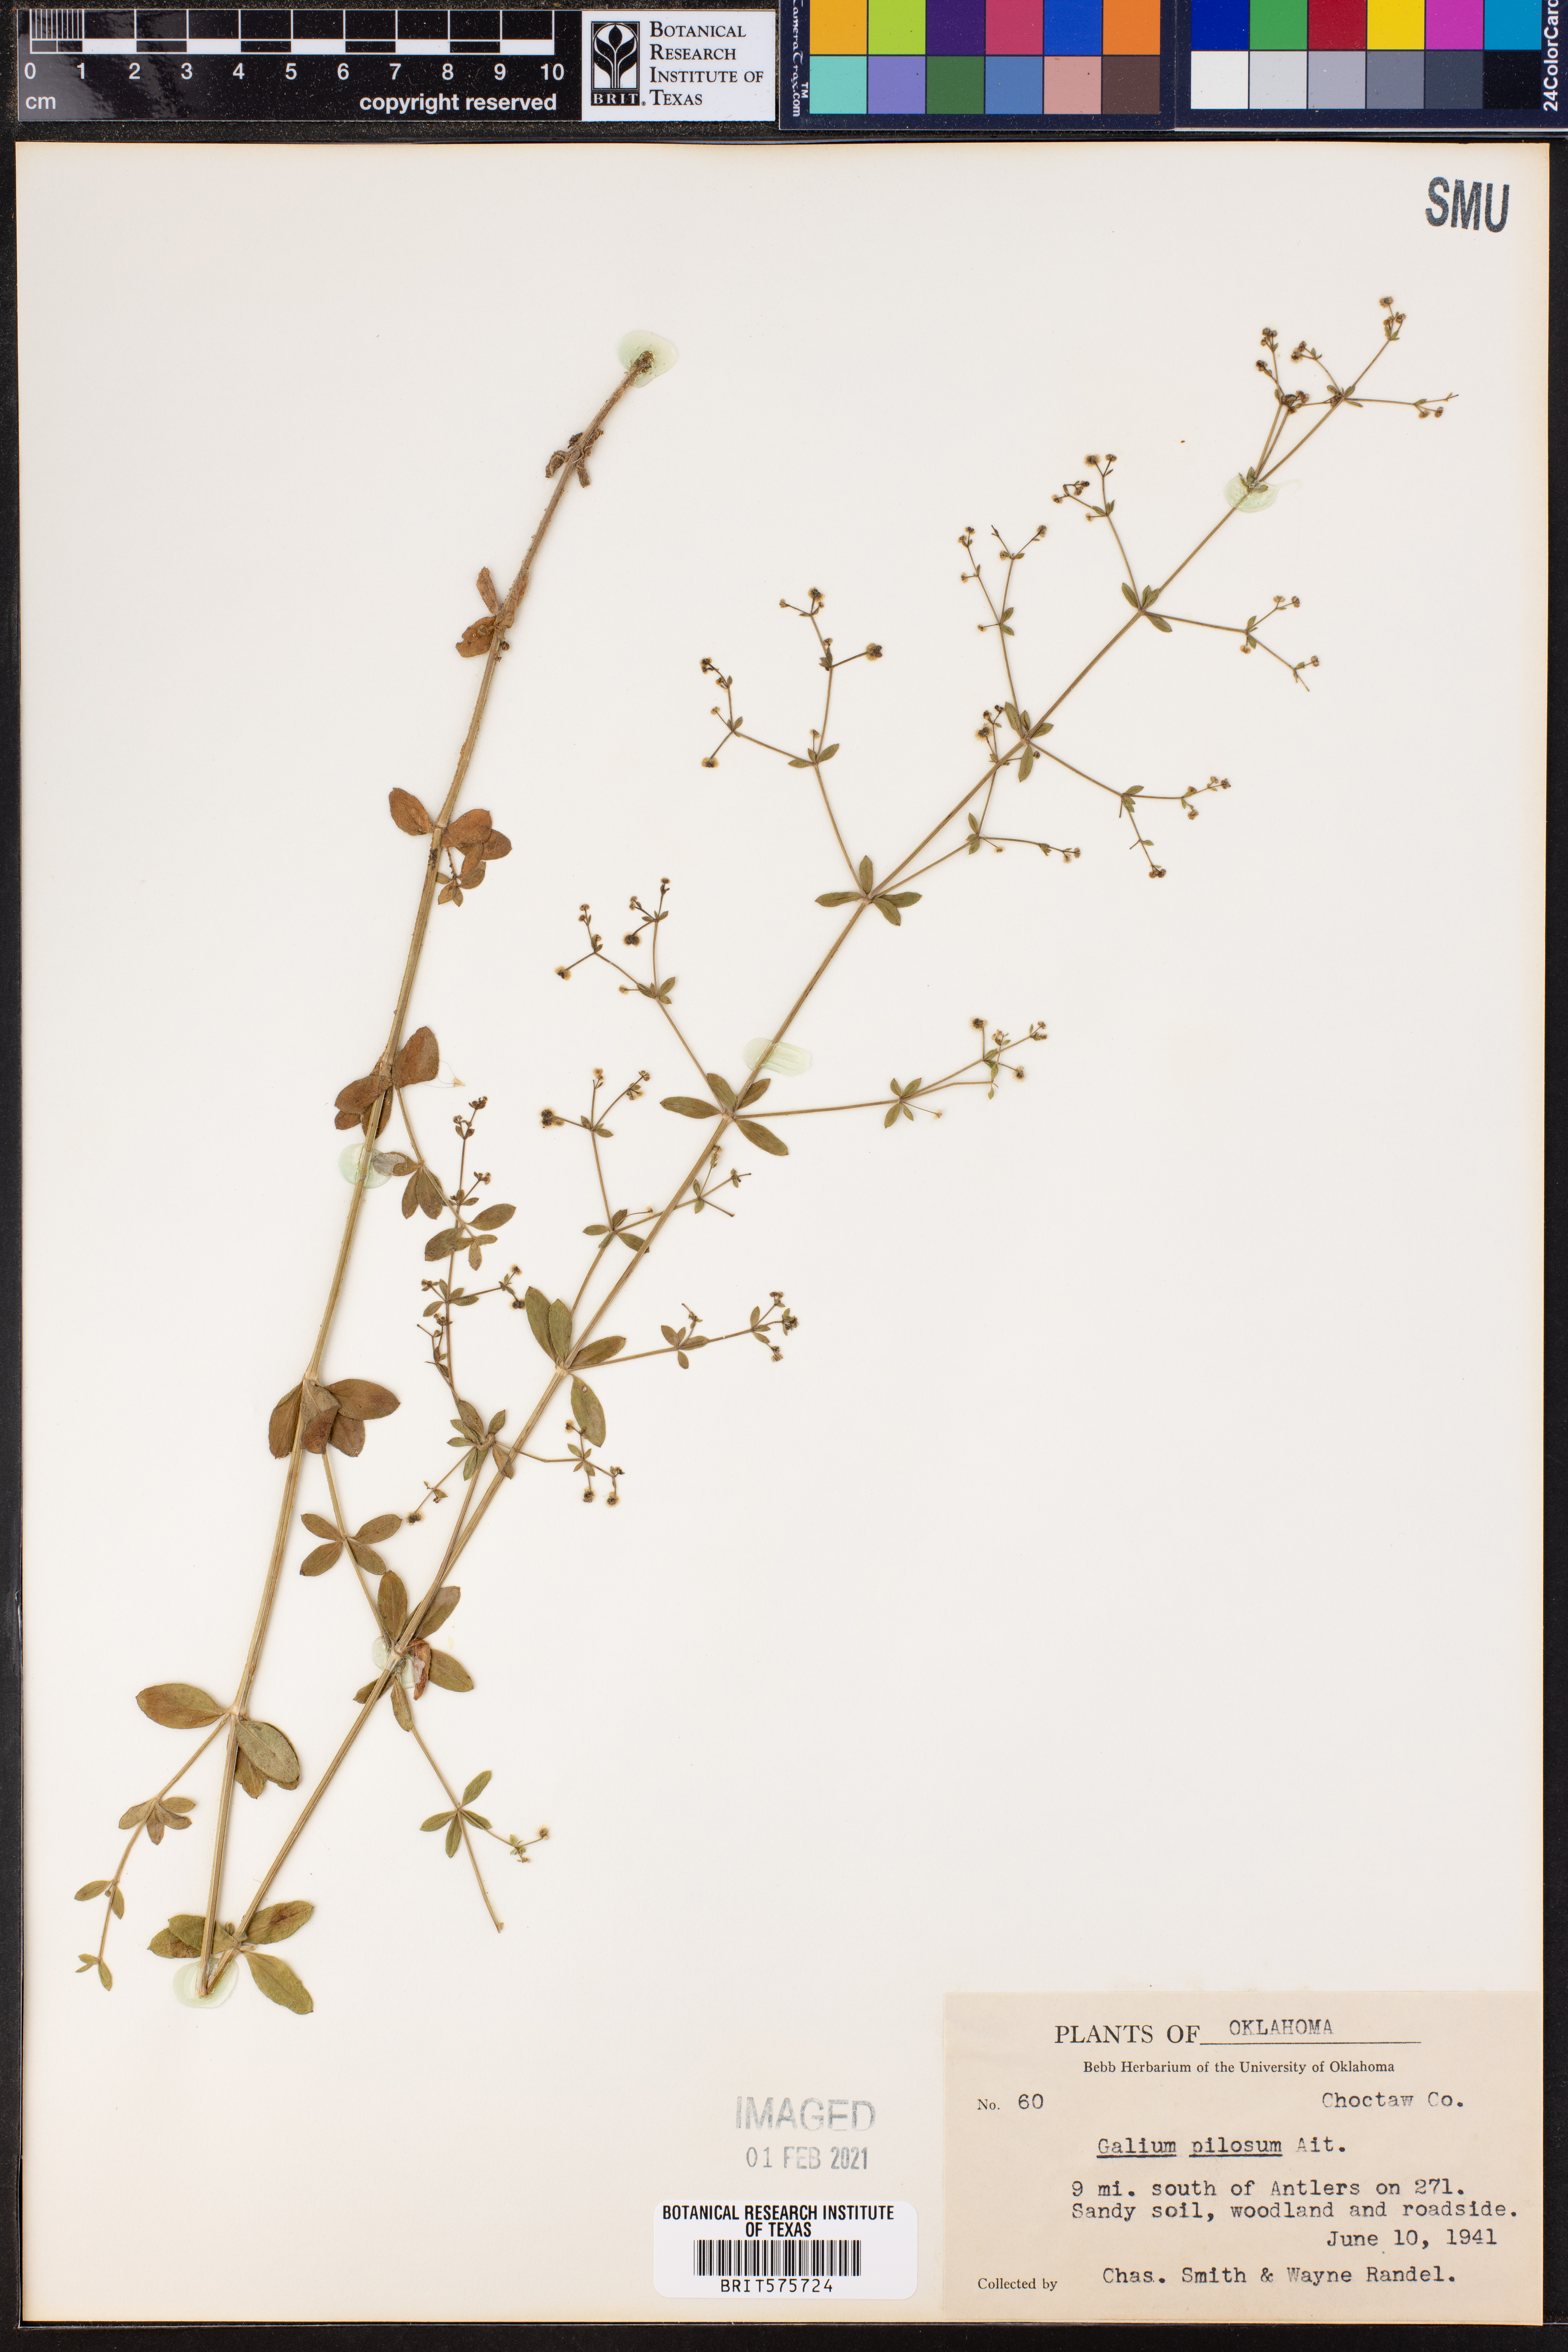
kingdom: Plantae
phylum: Tracheophyta
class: Magnoliopsida
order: Gentianales
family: Rubiaceae
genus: Galium
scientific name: Galium pilosum
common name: Hairy bedstraw
